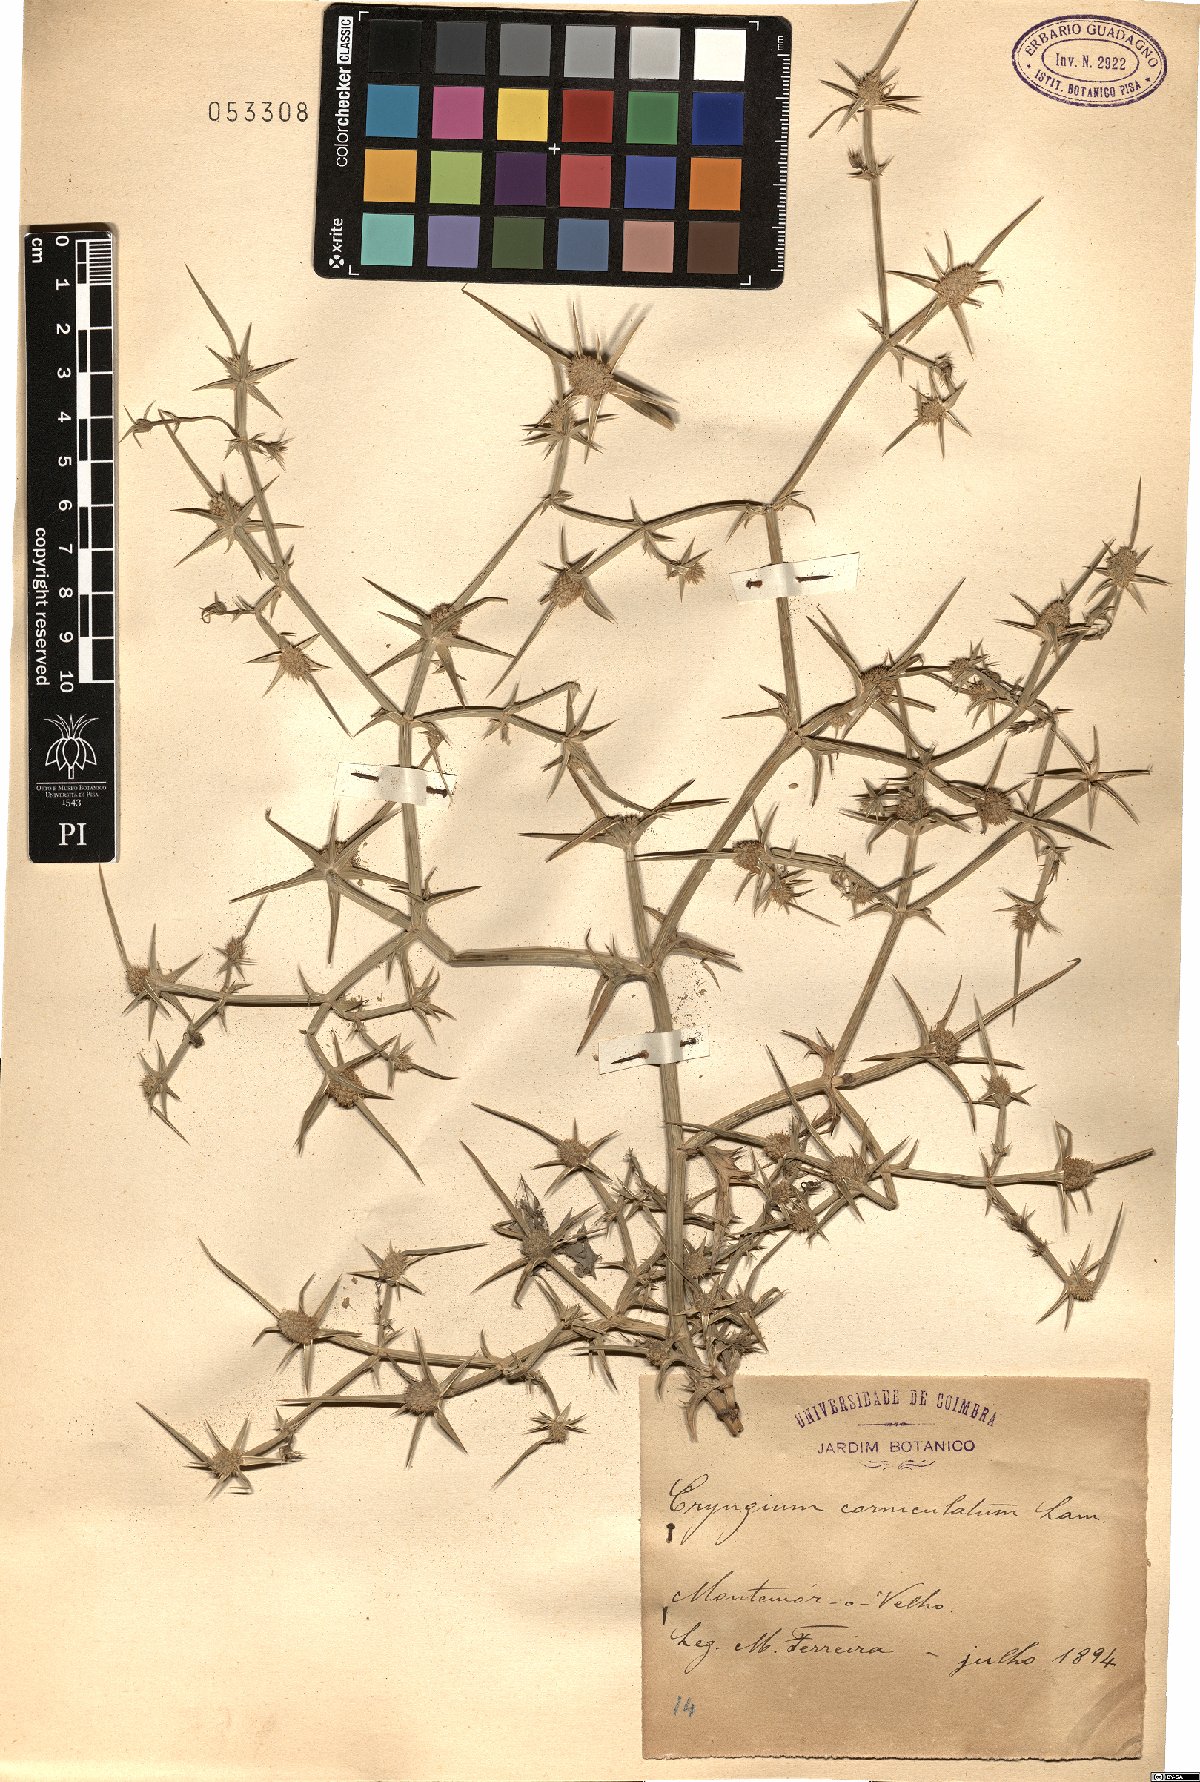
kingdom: Plantae
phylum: Tracheophyta
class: Magnoliopsida
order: Apiales
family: Apiaceae
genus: Eryngium
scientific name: Eryngium corniculatum
